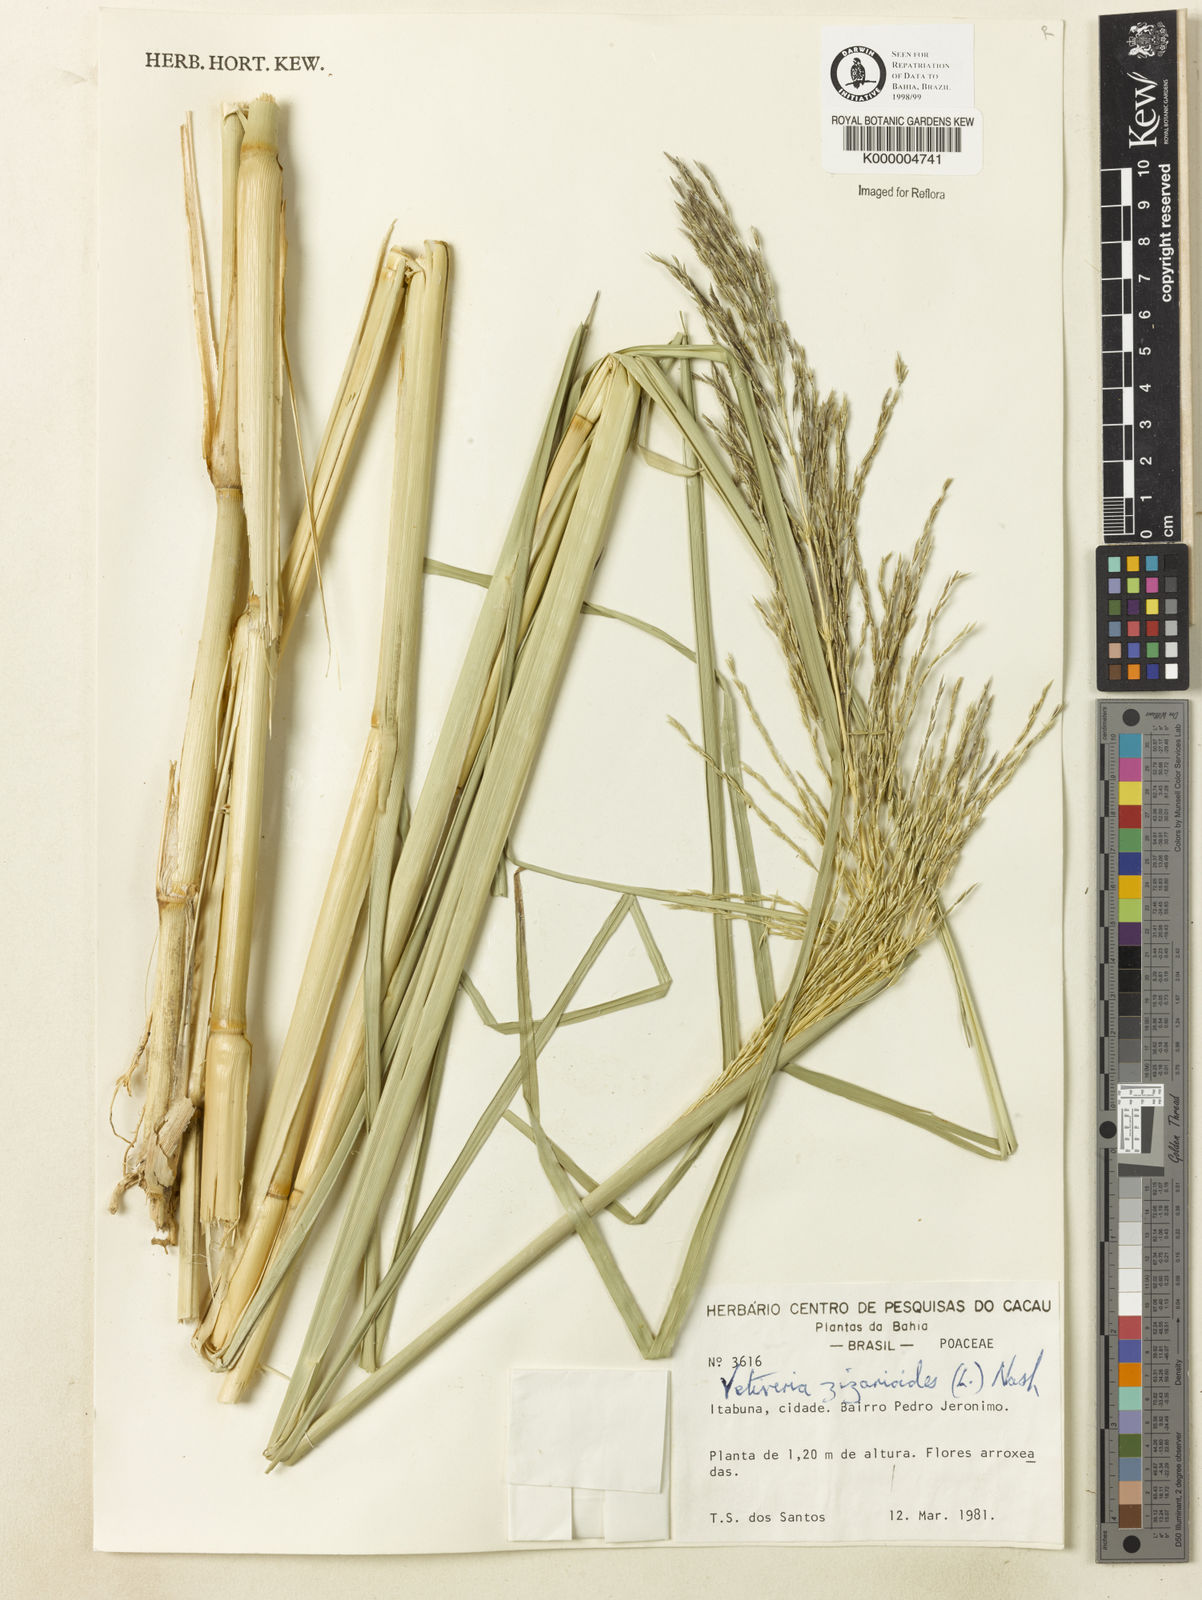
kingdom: Plantae
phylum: Tracheophyta
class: Liliopsida
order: Poales
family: Poaceae
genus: Chrysopogon
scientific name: Chrysopogon zizanioides
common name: False beardgrass
